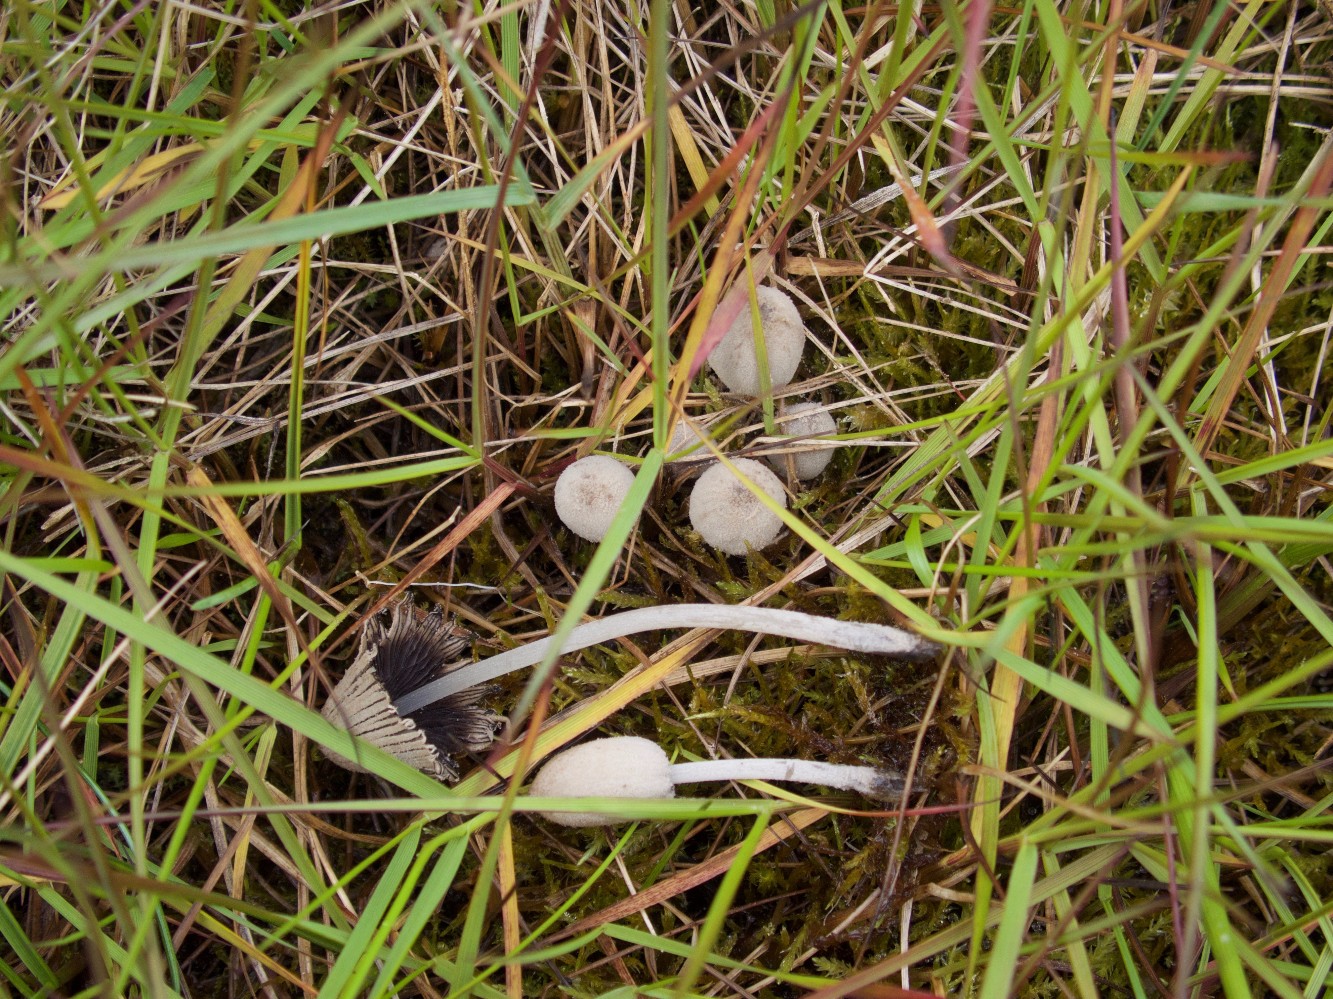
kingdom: Fungi
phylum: Basidiomycota
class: Agaricomycetes
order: Agaricales
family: Psathyrellaceae
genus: Coprinopsis
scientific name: Coprinopsis martinii
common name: rigkær-blækhat
